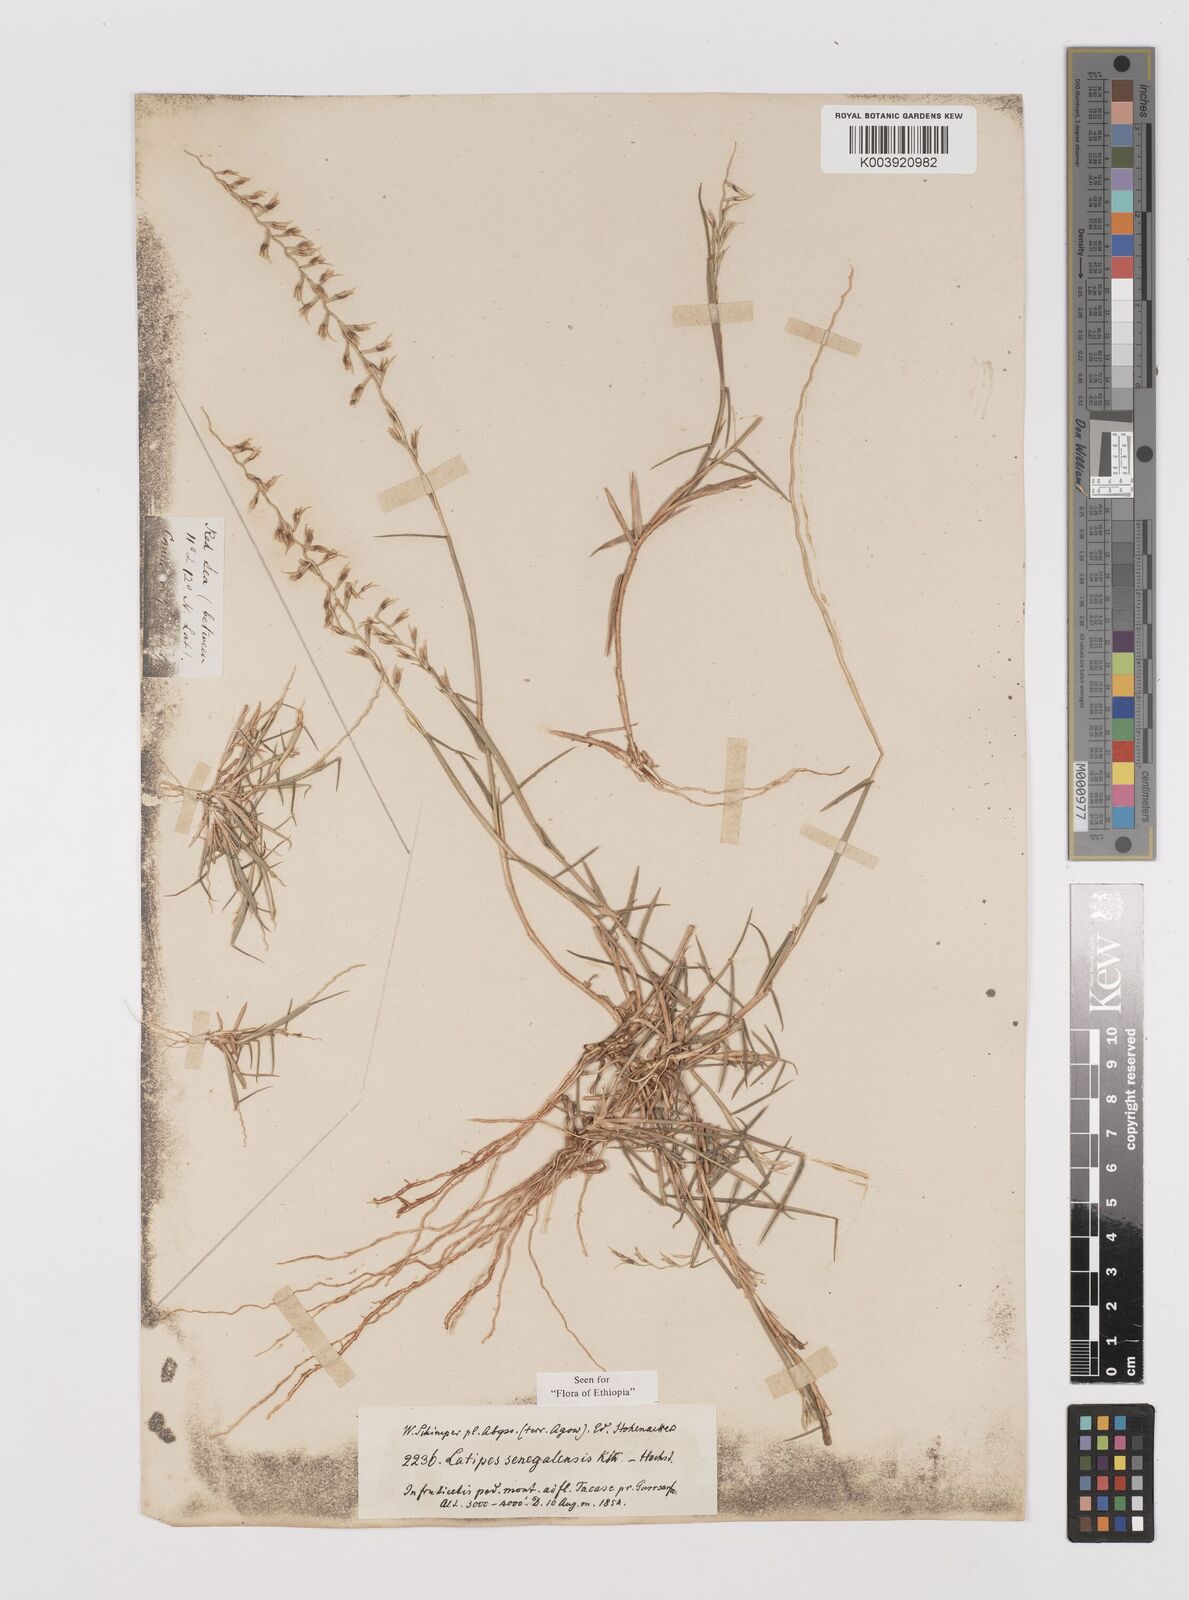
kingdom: Plantae
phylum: Tracheophyta
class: Liliopsida
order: Poales
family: Poaceae
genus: Leptothrium
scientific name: Leptothrium senegalense
